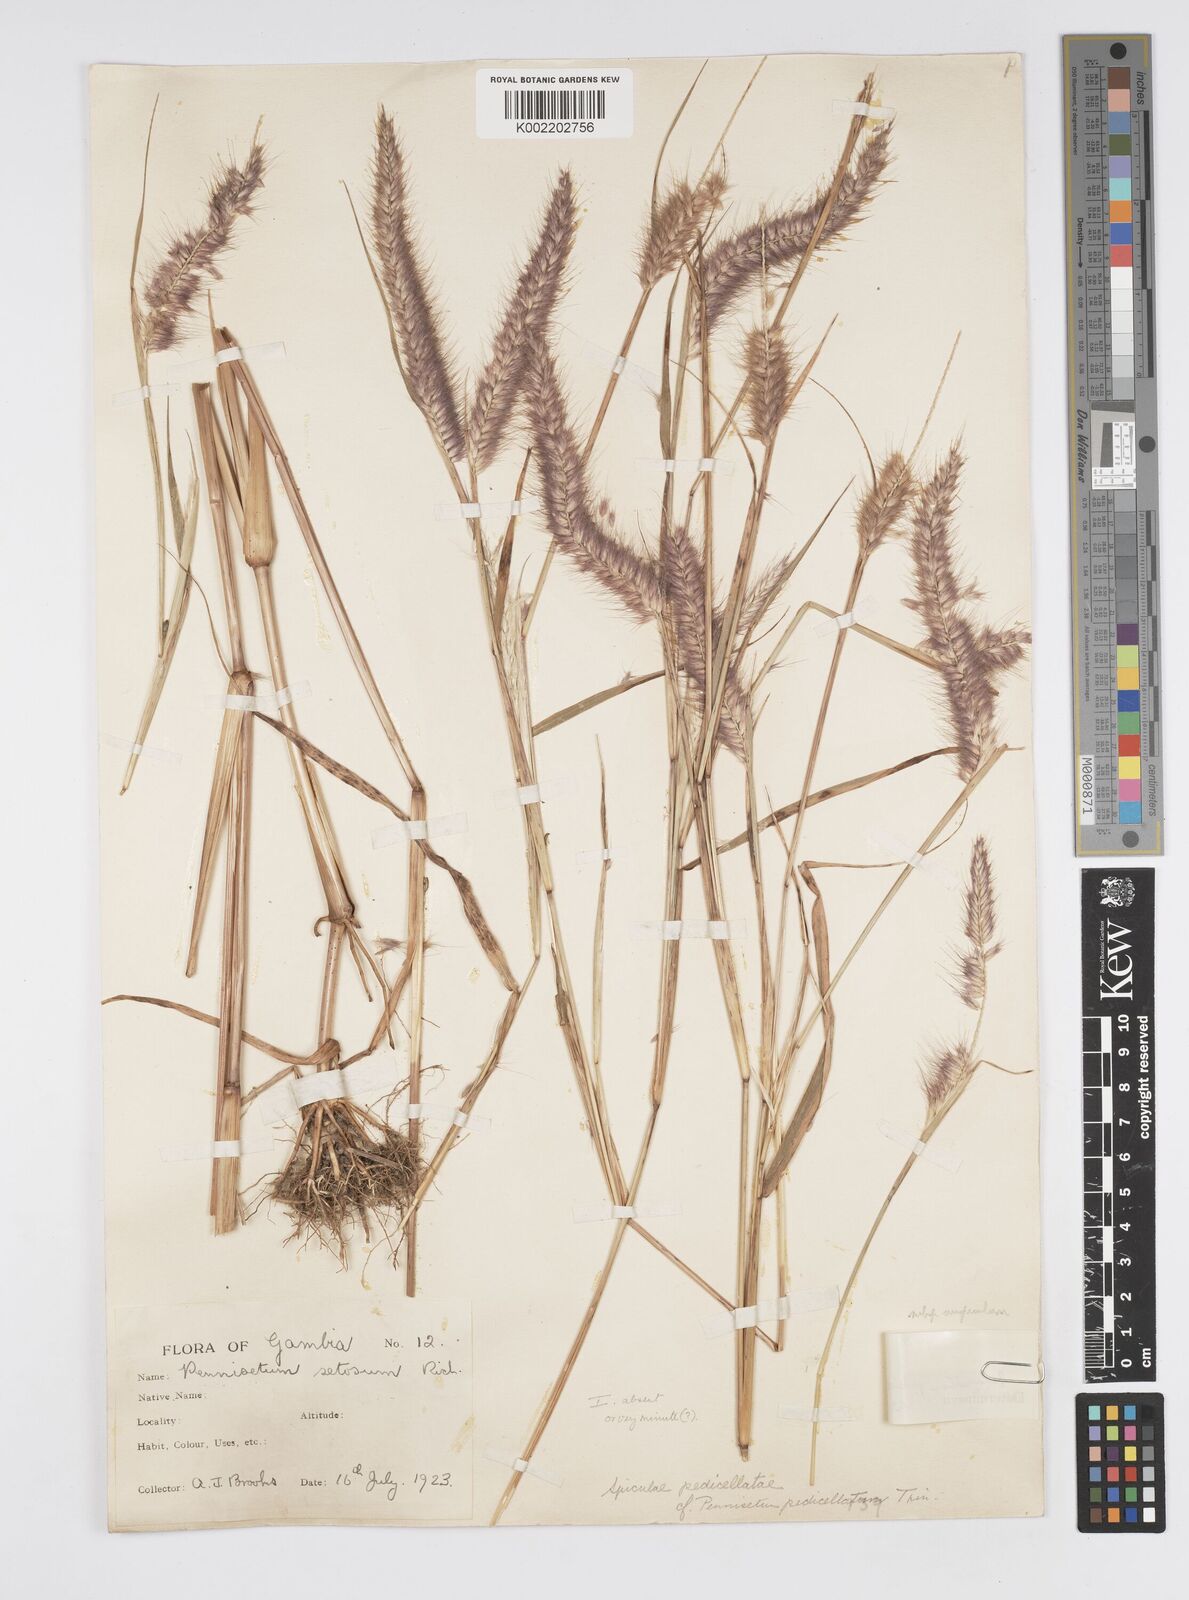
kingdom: Plantae
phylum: Tracheophyta
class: Liliopsida
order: Poales
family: Poaceae
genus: Cenchrus
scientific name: Cenchrus pedicellatus
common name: Hairy fountain grass
